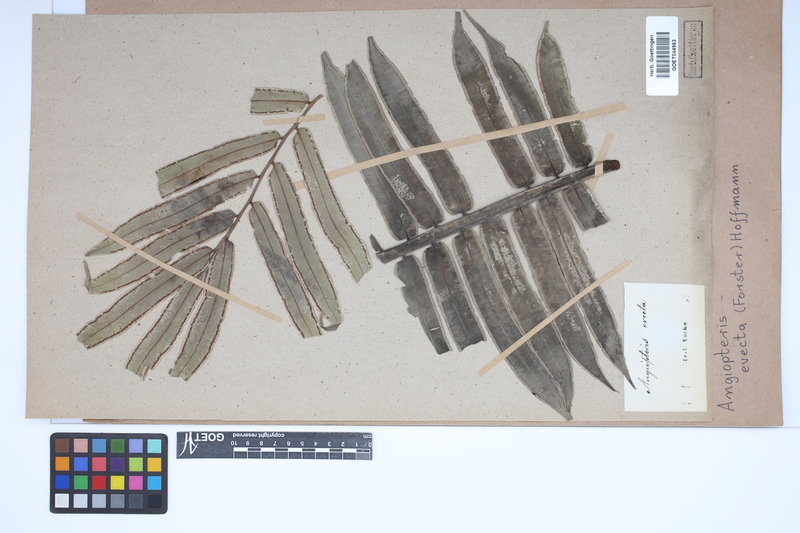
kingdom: Plantae
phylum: Tracheophyta
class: Polypodiopsida
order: Marattiales
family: Marattiaceae
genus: Angiopteris
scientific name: Angiopteris evecta
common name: Mule's-foot fern
